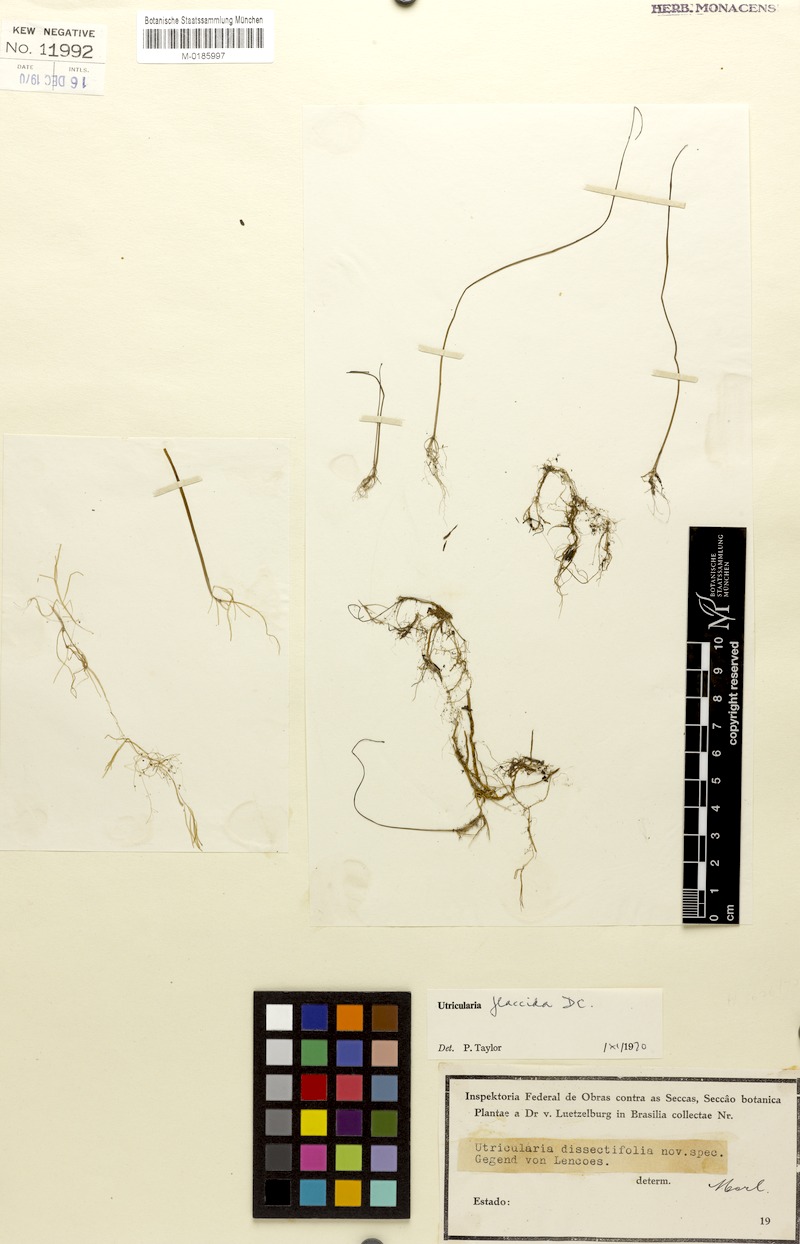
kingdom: Plantae
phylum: Tracheophyta
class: Magnoliopsida
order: Lamiales
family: Lentibulariaceae
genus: Utricularia
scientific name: Utricularia flaccida
